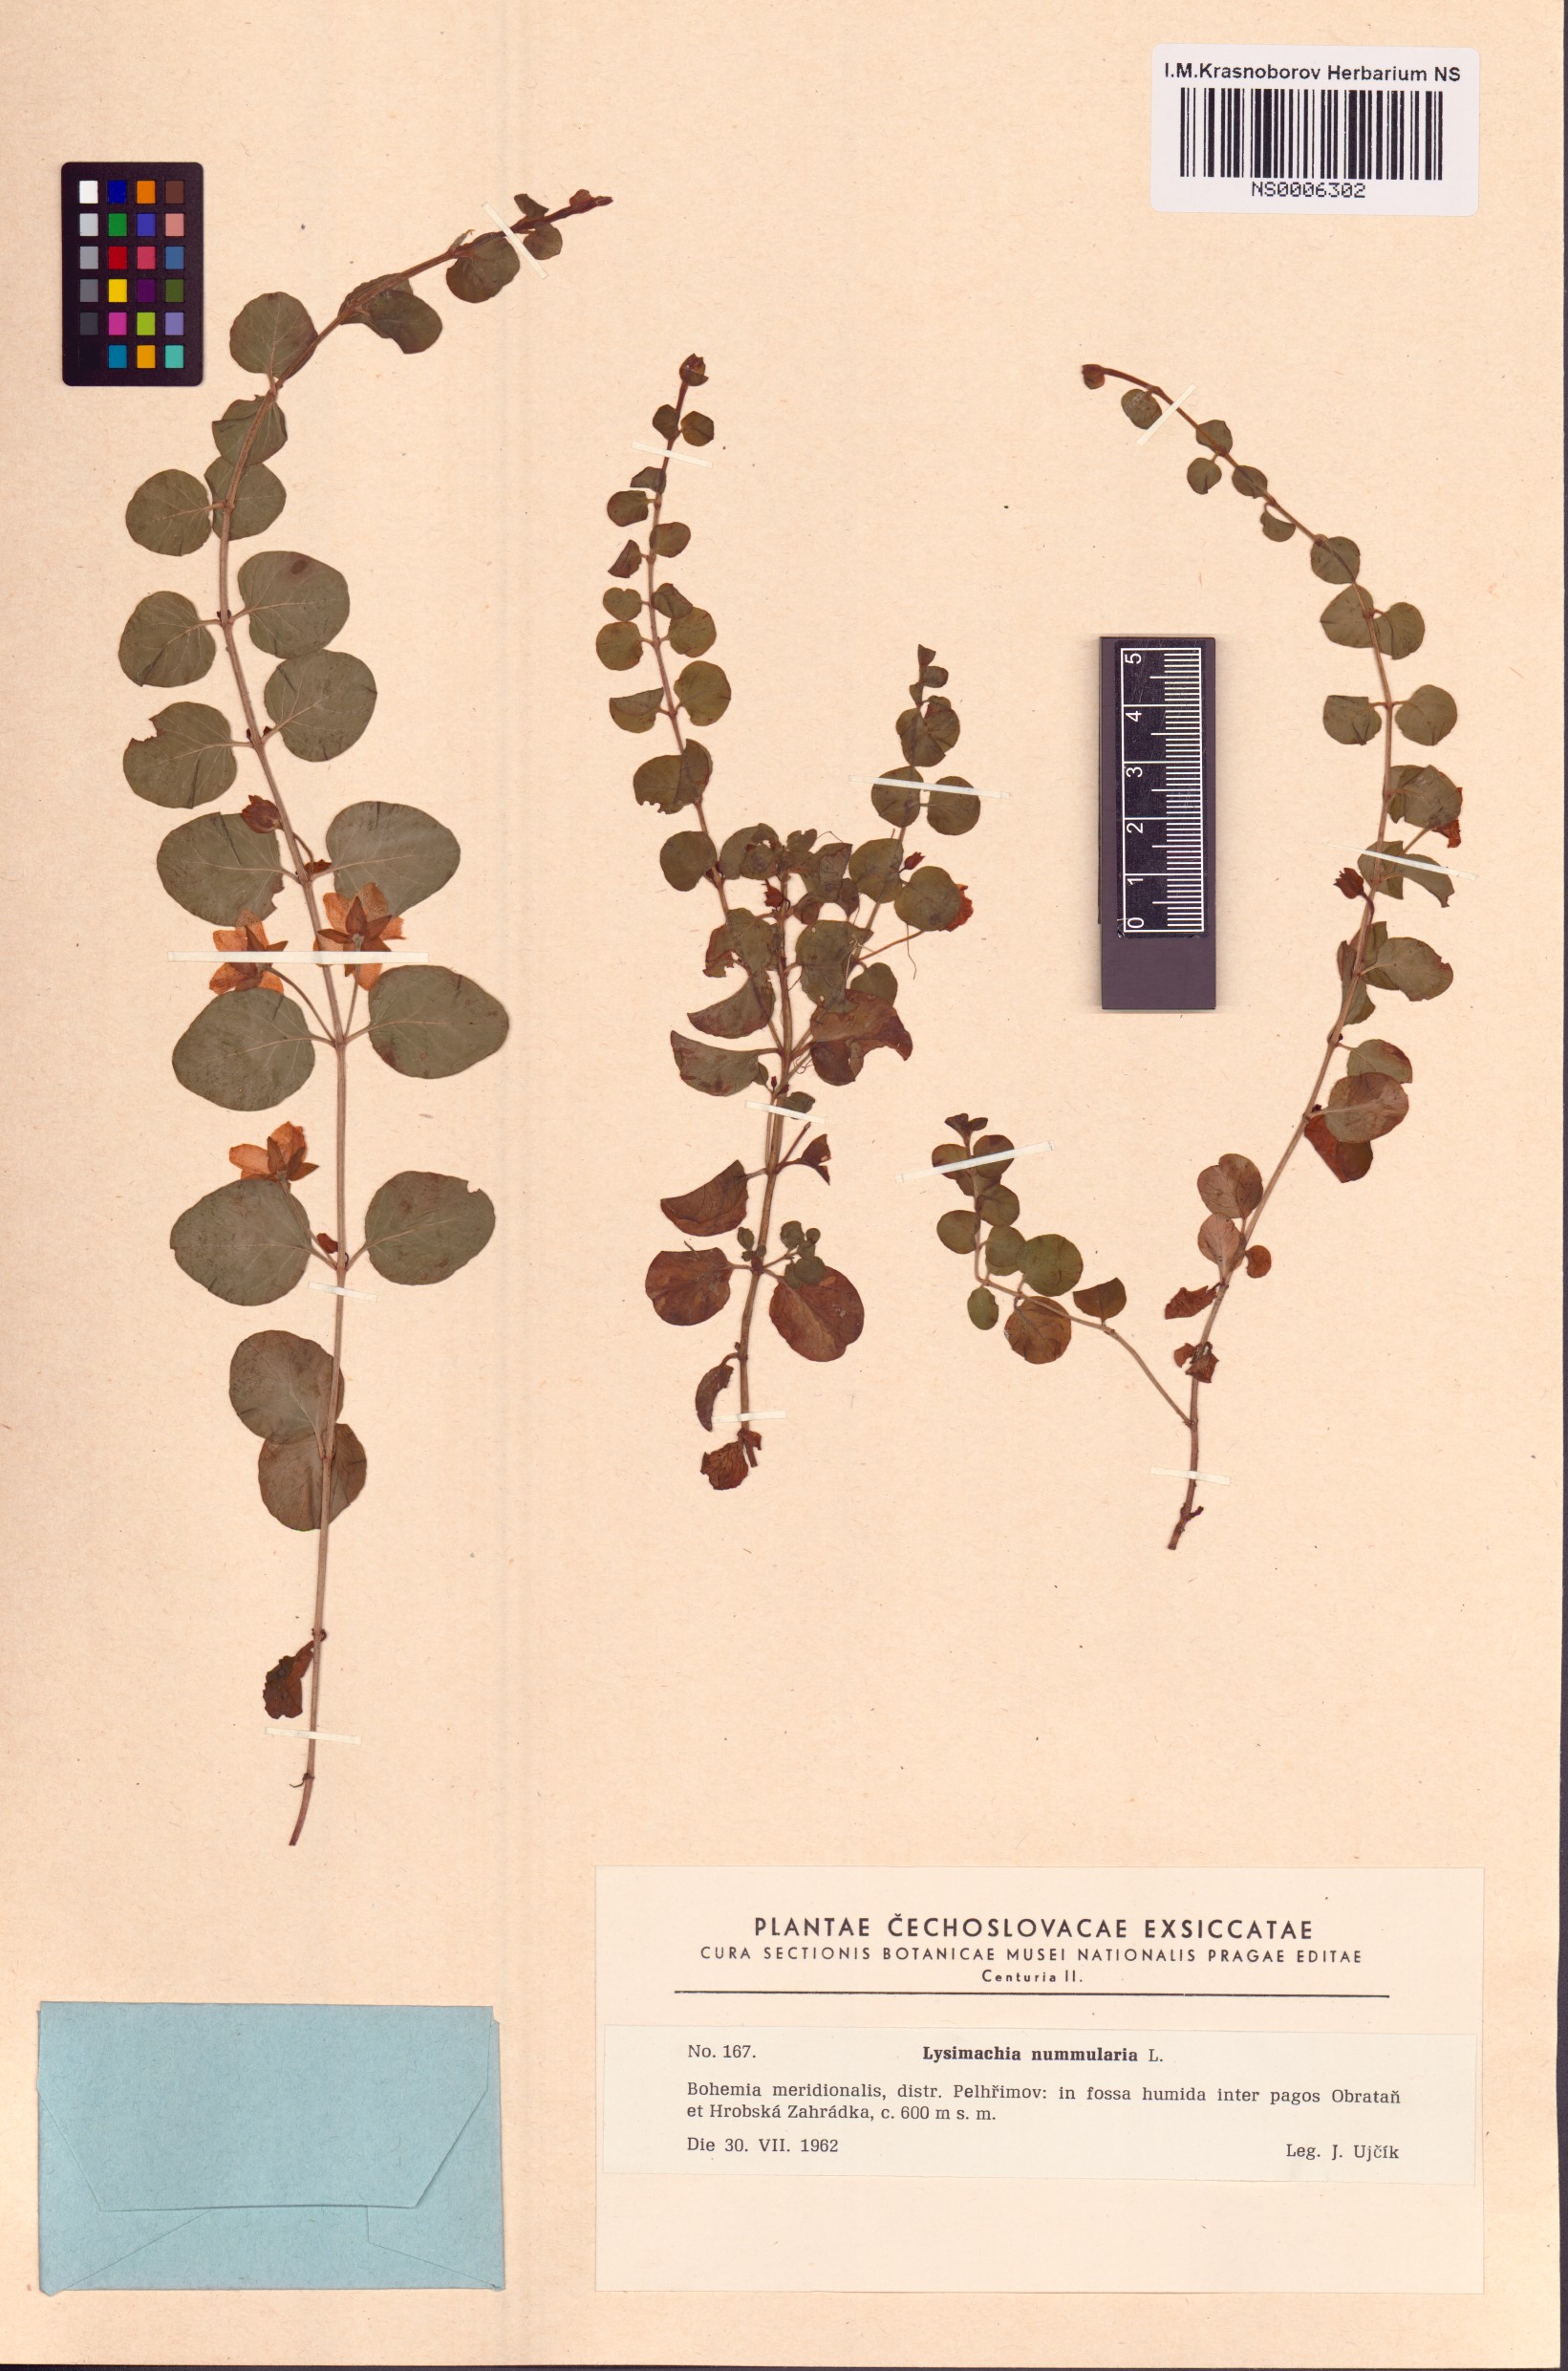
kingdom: Plantae
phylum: Tracheophyta
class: Magnoliopsida
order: Ericales
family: Primulaceae
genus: Lysimachia
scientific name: Lysimachia nummularia
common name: Moneywort
